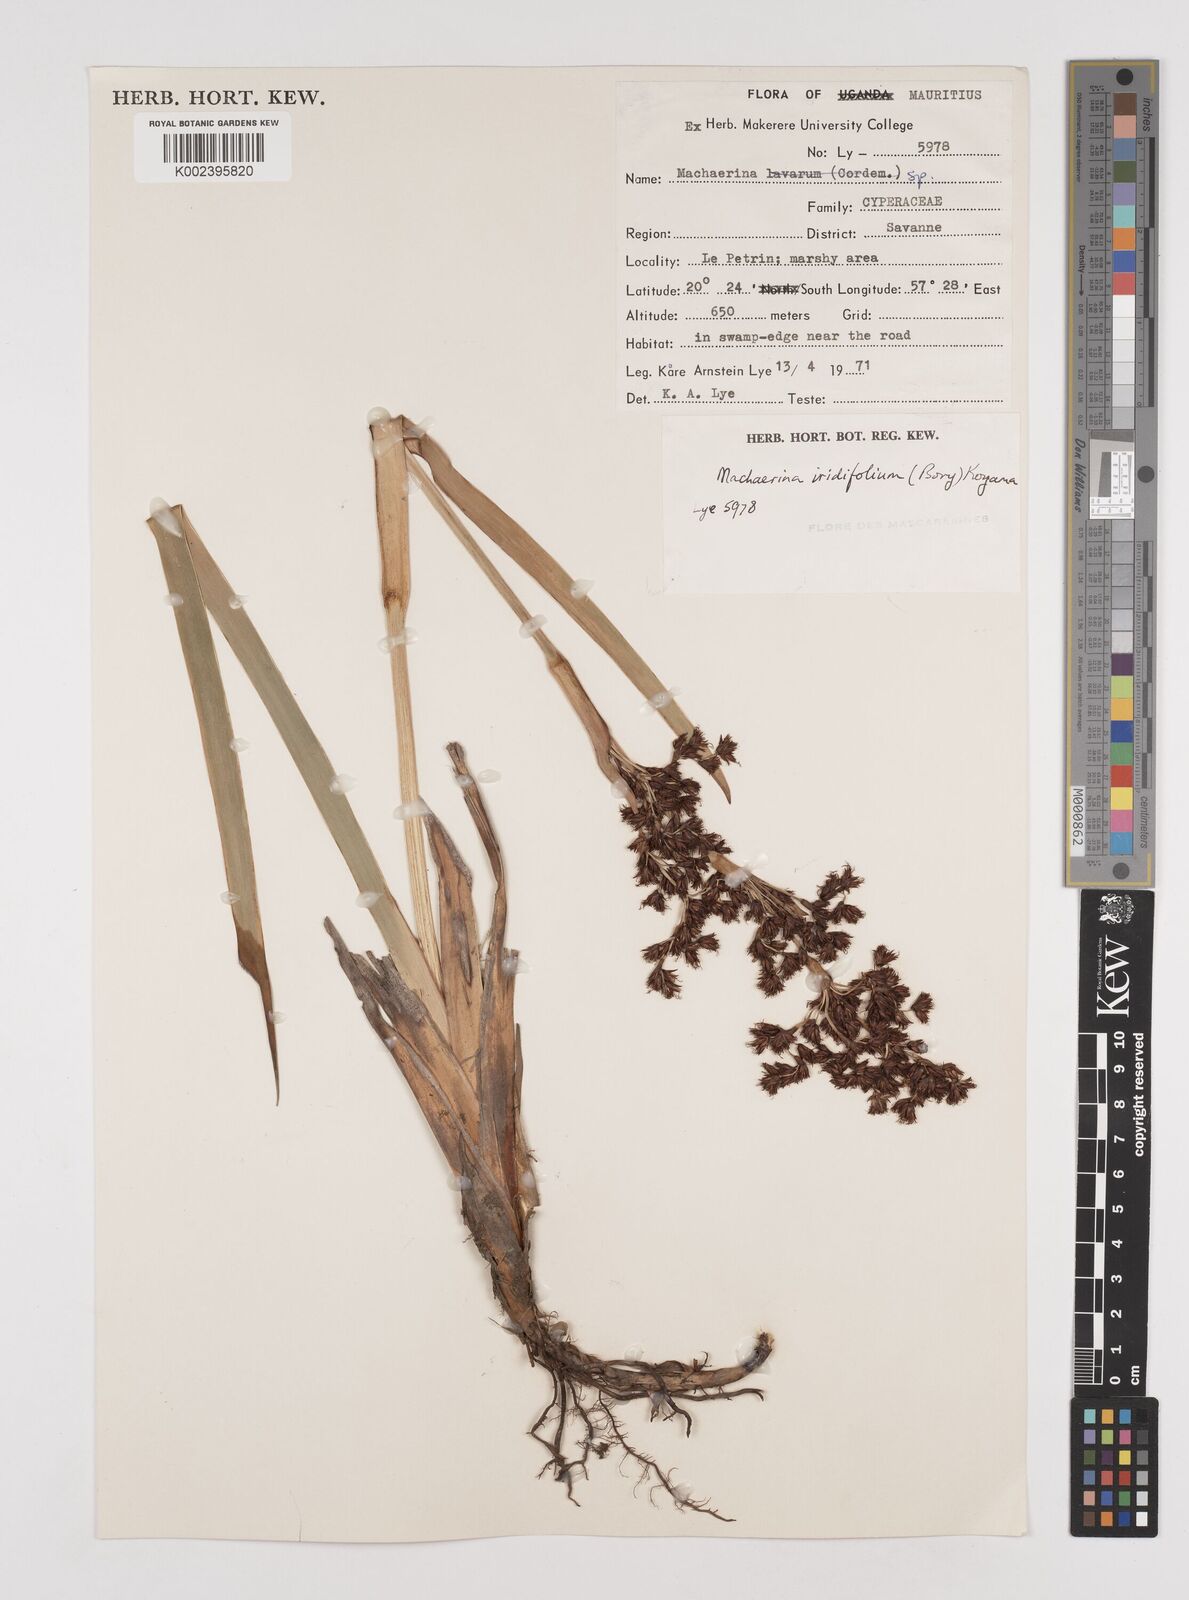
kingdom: Plantae
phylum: Tracheophyta
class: Liliopsida
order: Poales
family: Cyperaceae
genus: Machaerina
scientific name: Machaerina iridifolia
